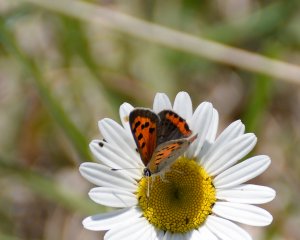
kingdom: Animalia
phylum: Arthropoda
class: Insecta
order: Lepidoptera
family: Lycaenidae
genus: Lycaena
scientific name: Lycaena phlaeas
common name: American Copper
